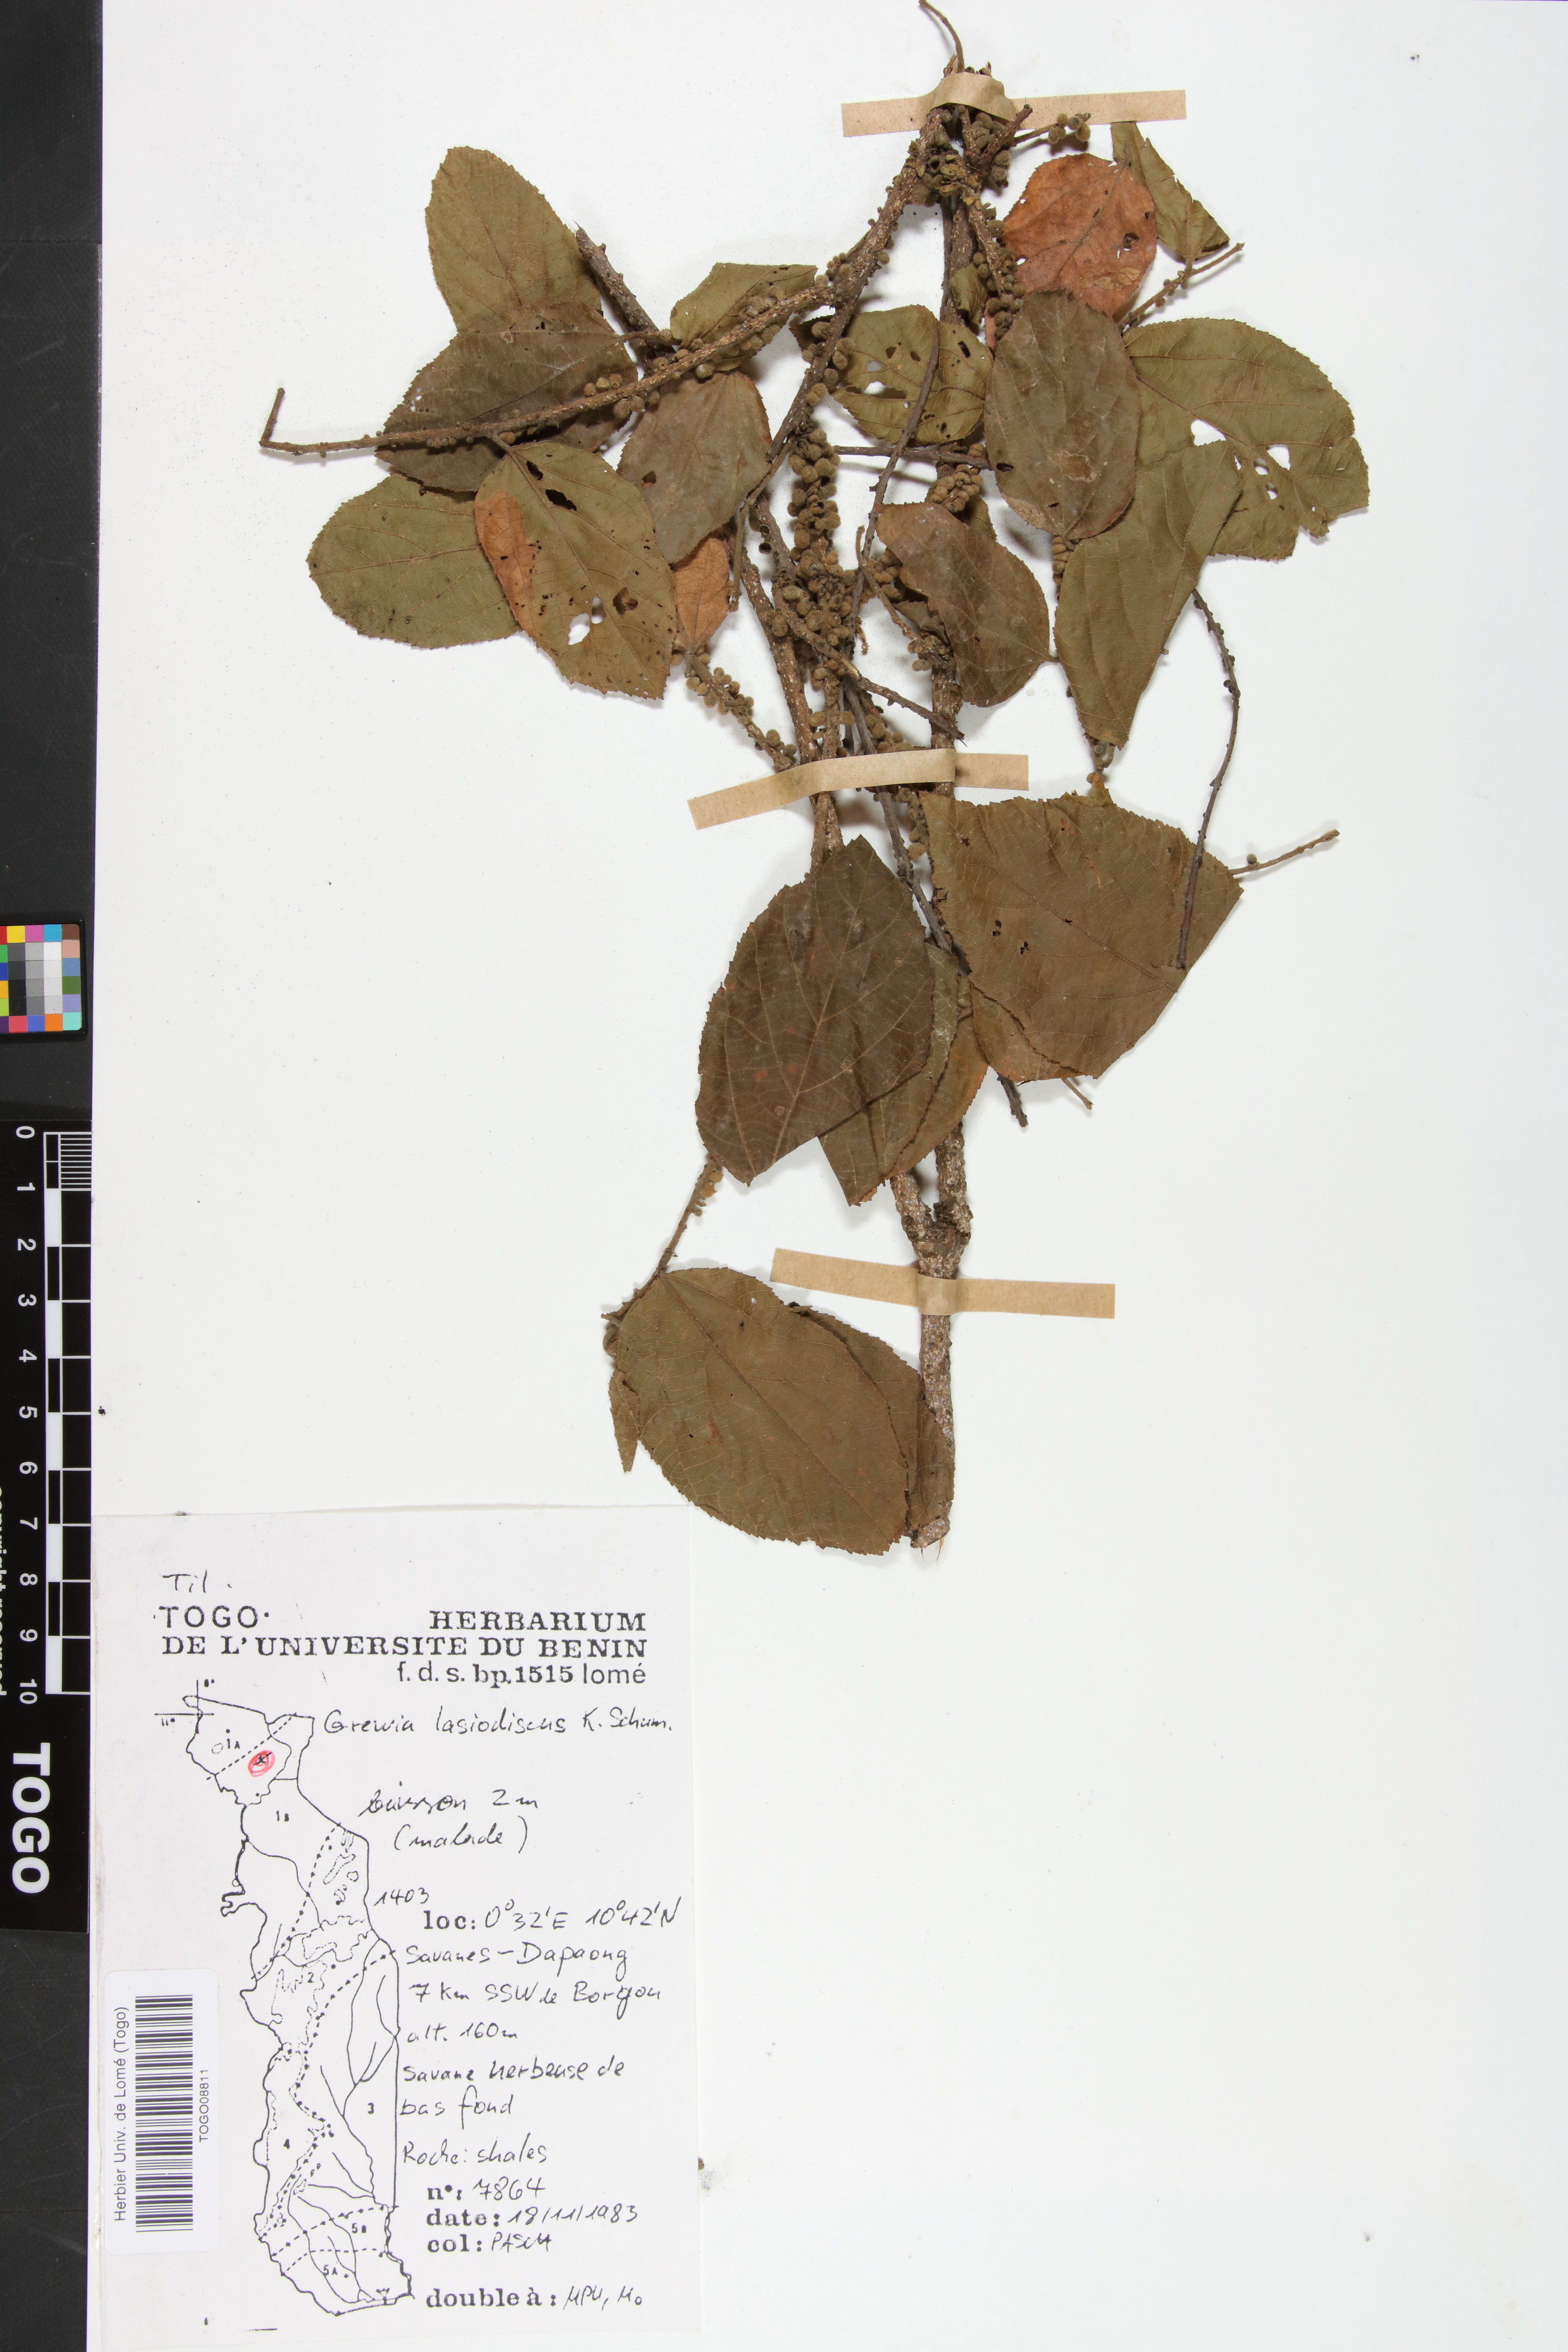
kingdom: Plantae
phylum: Tracheophyta
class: Magnoliopsida
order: Malvales
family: Malvaceae
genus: Grewia
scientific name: Grewia lasiodiscus
